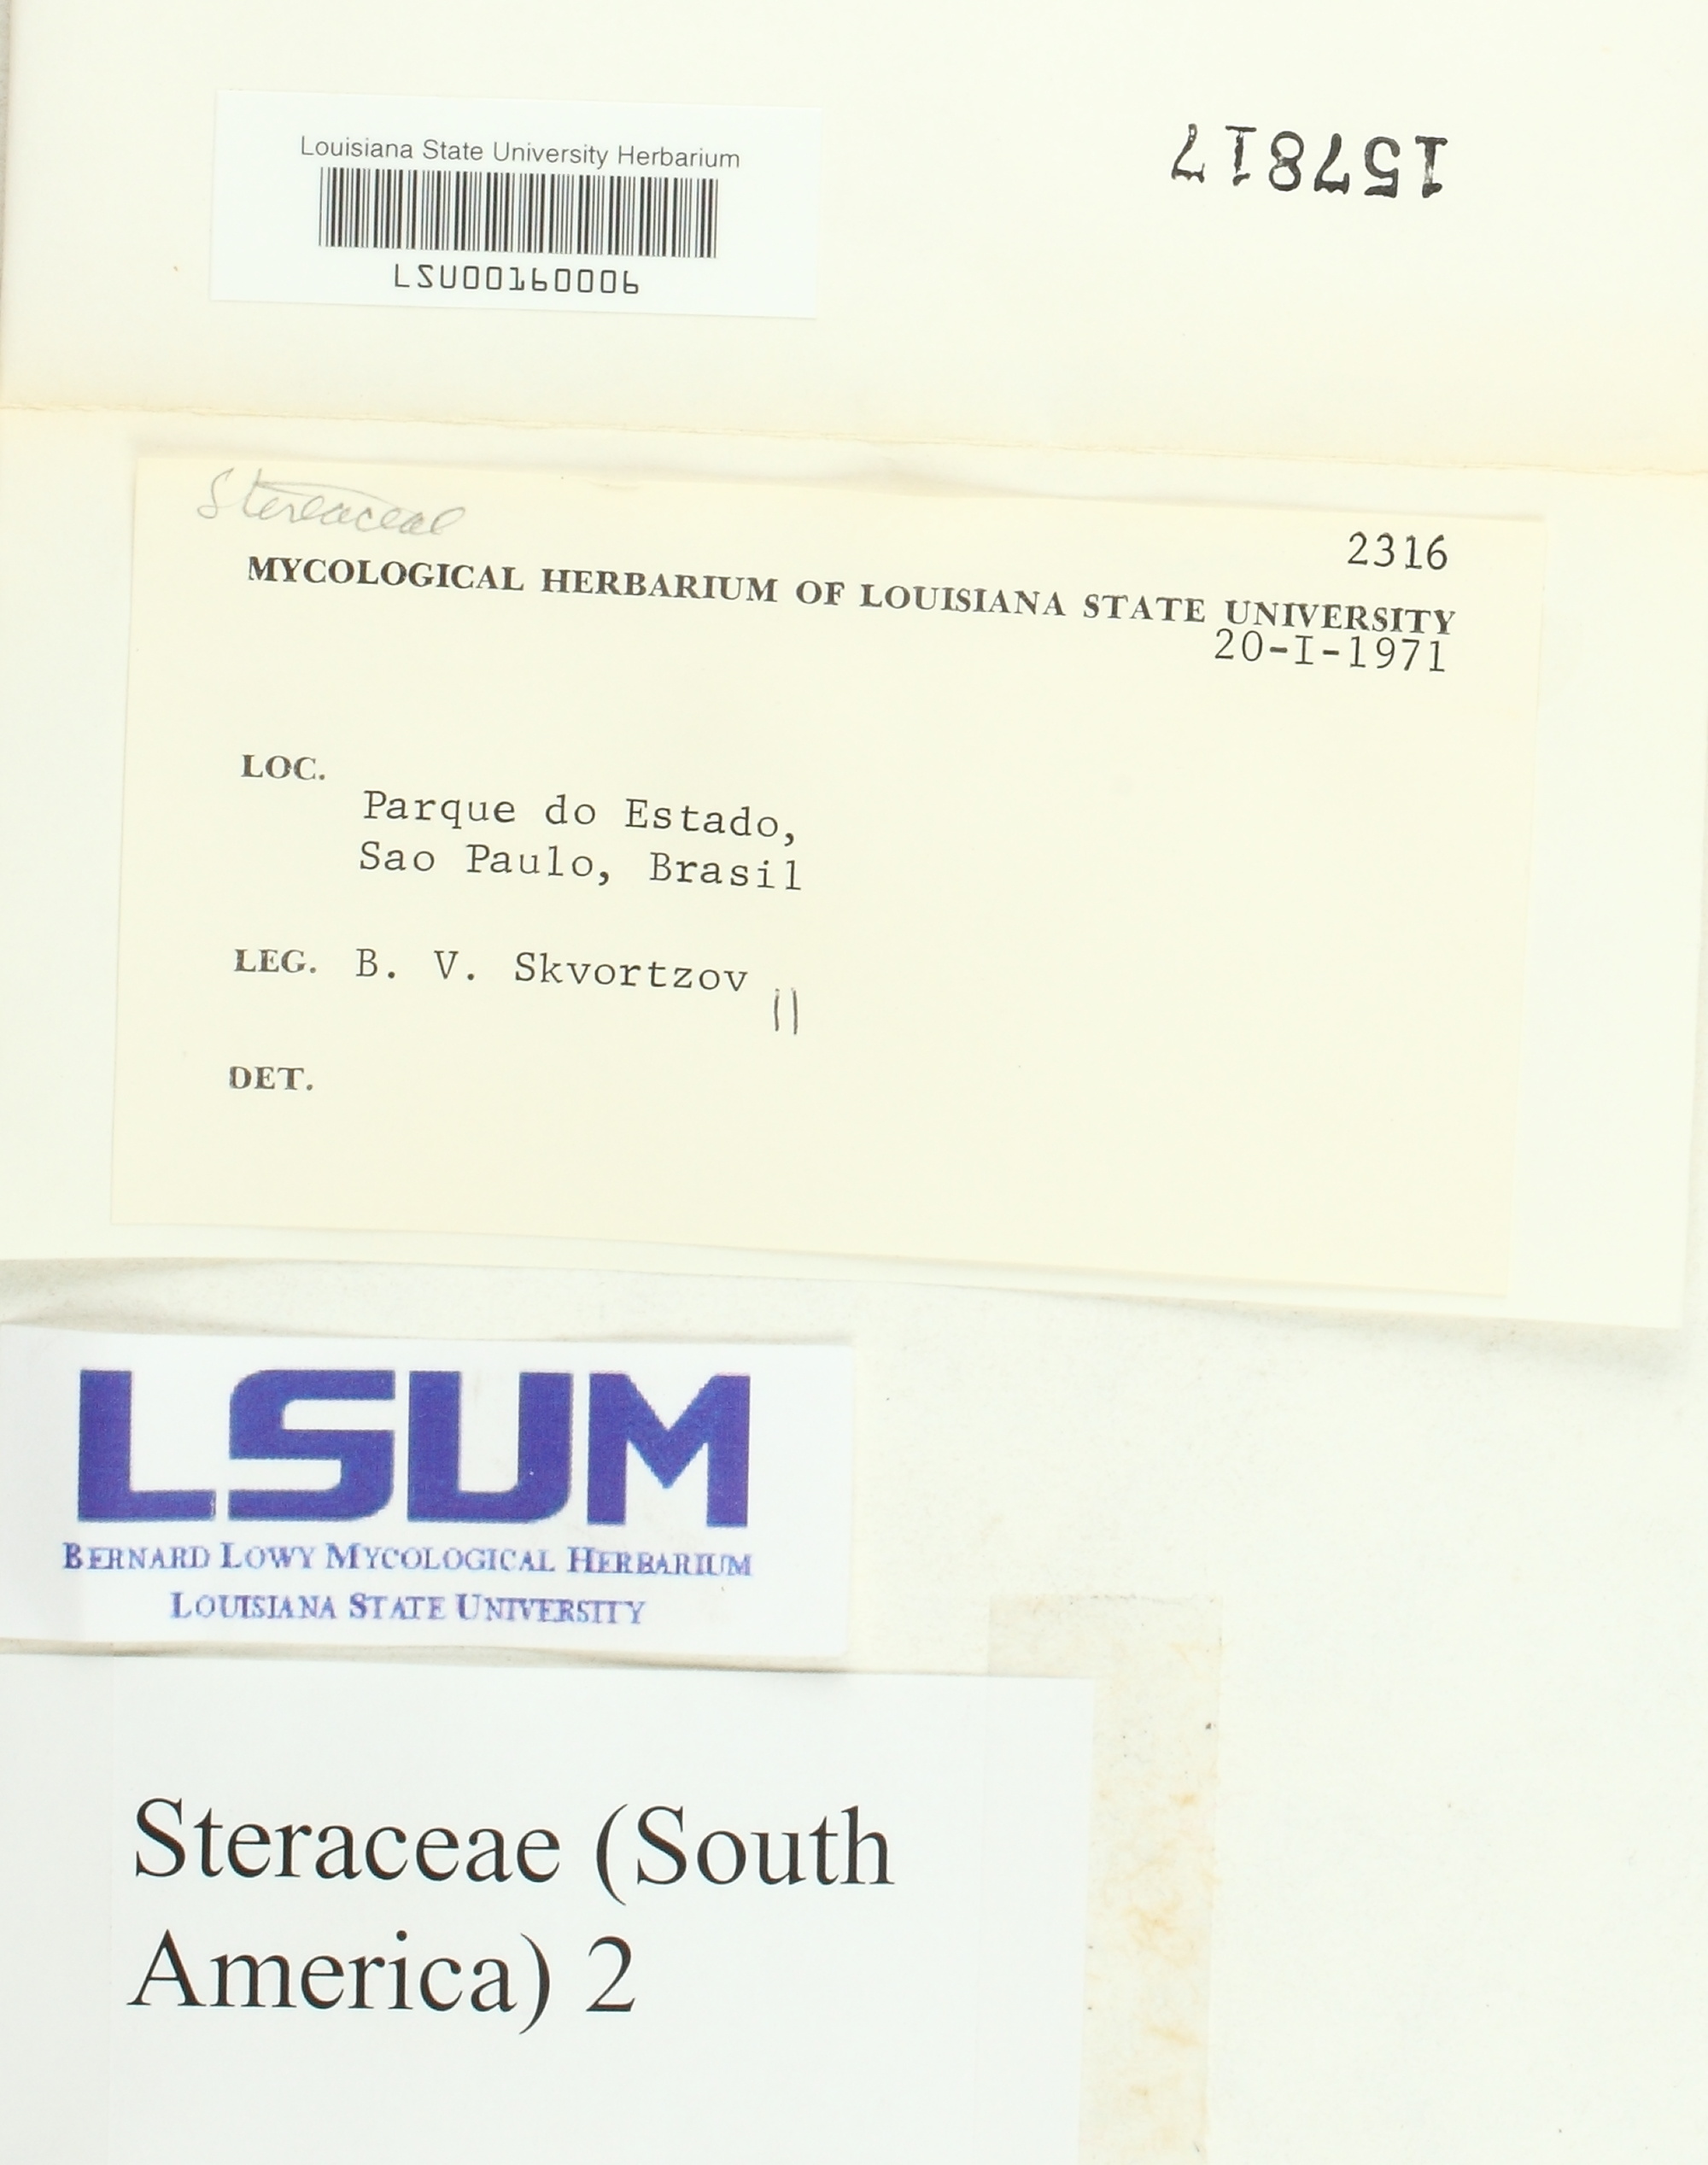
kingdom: Fungi
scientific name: Fungi
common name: Fungi
